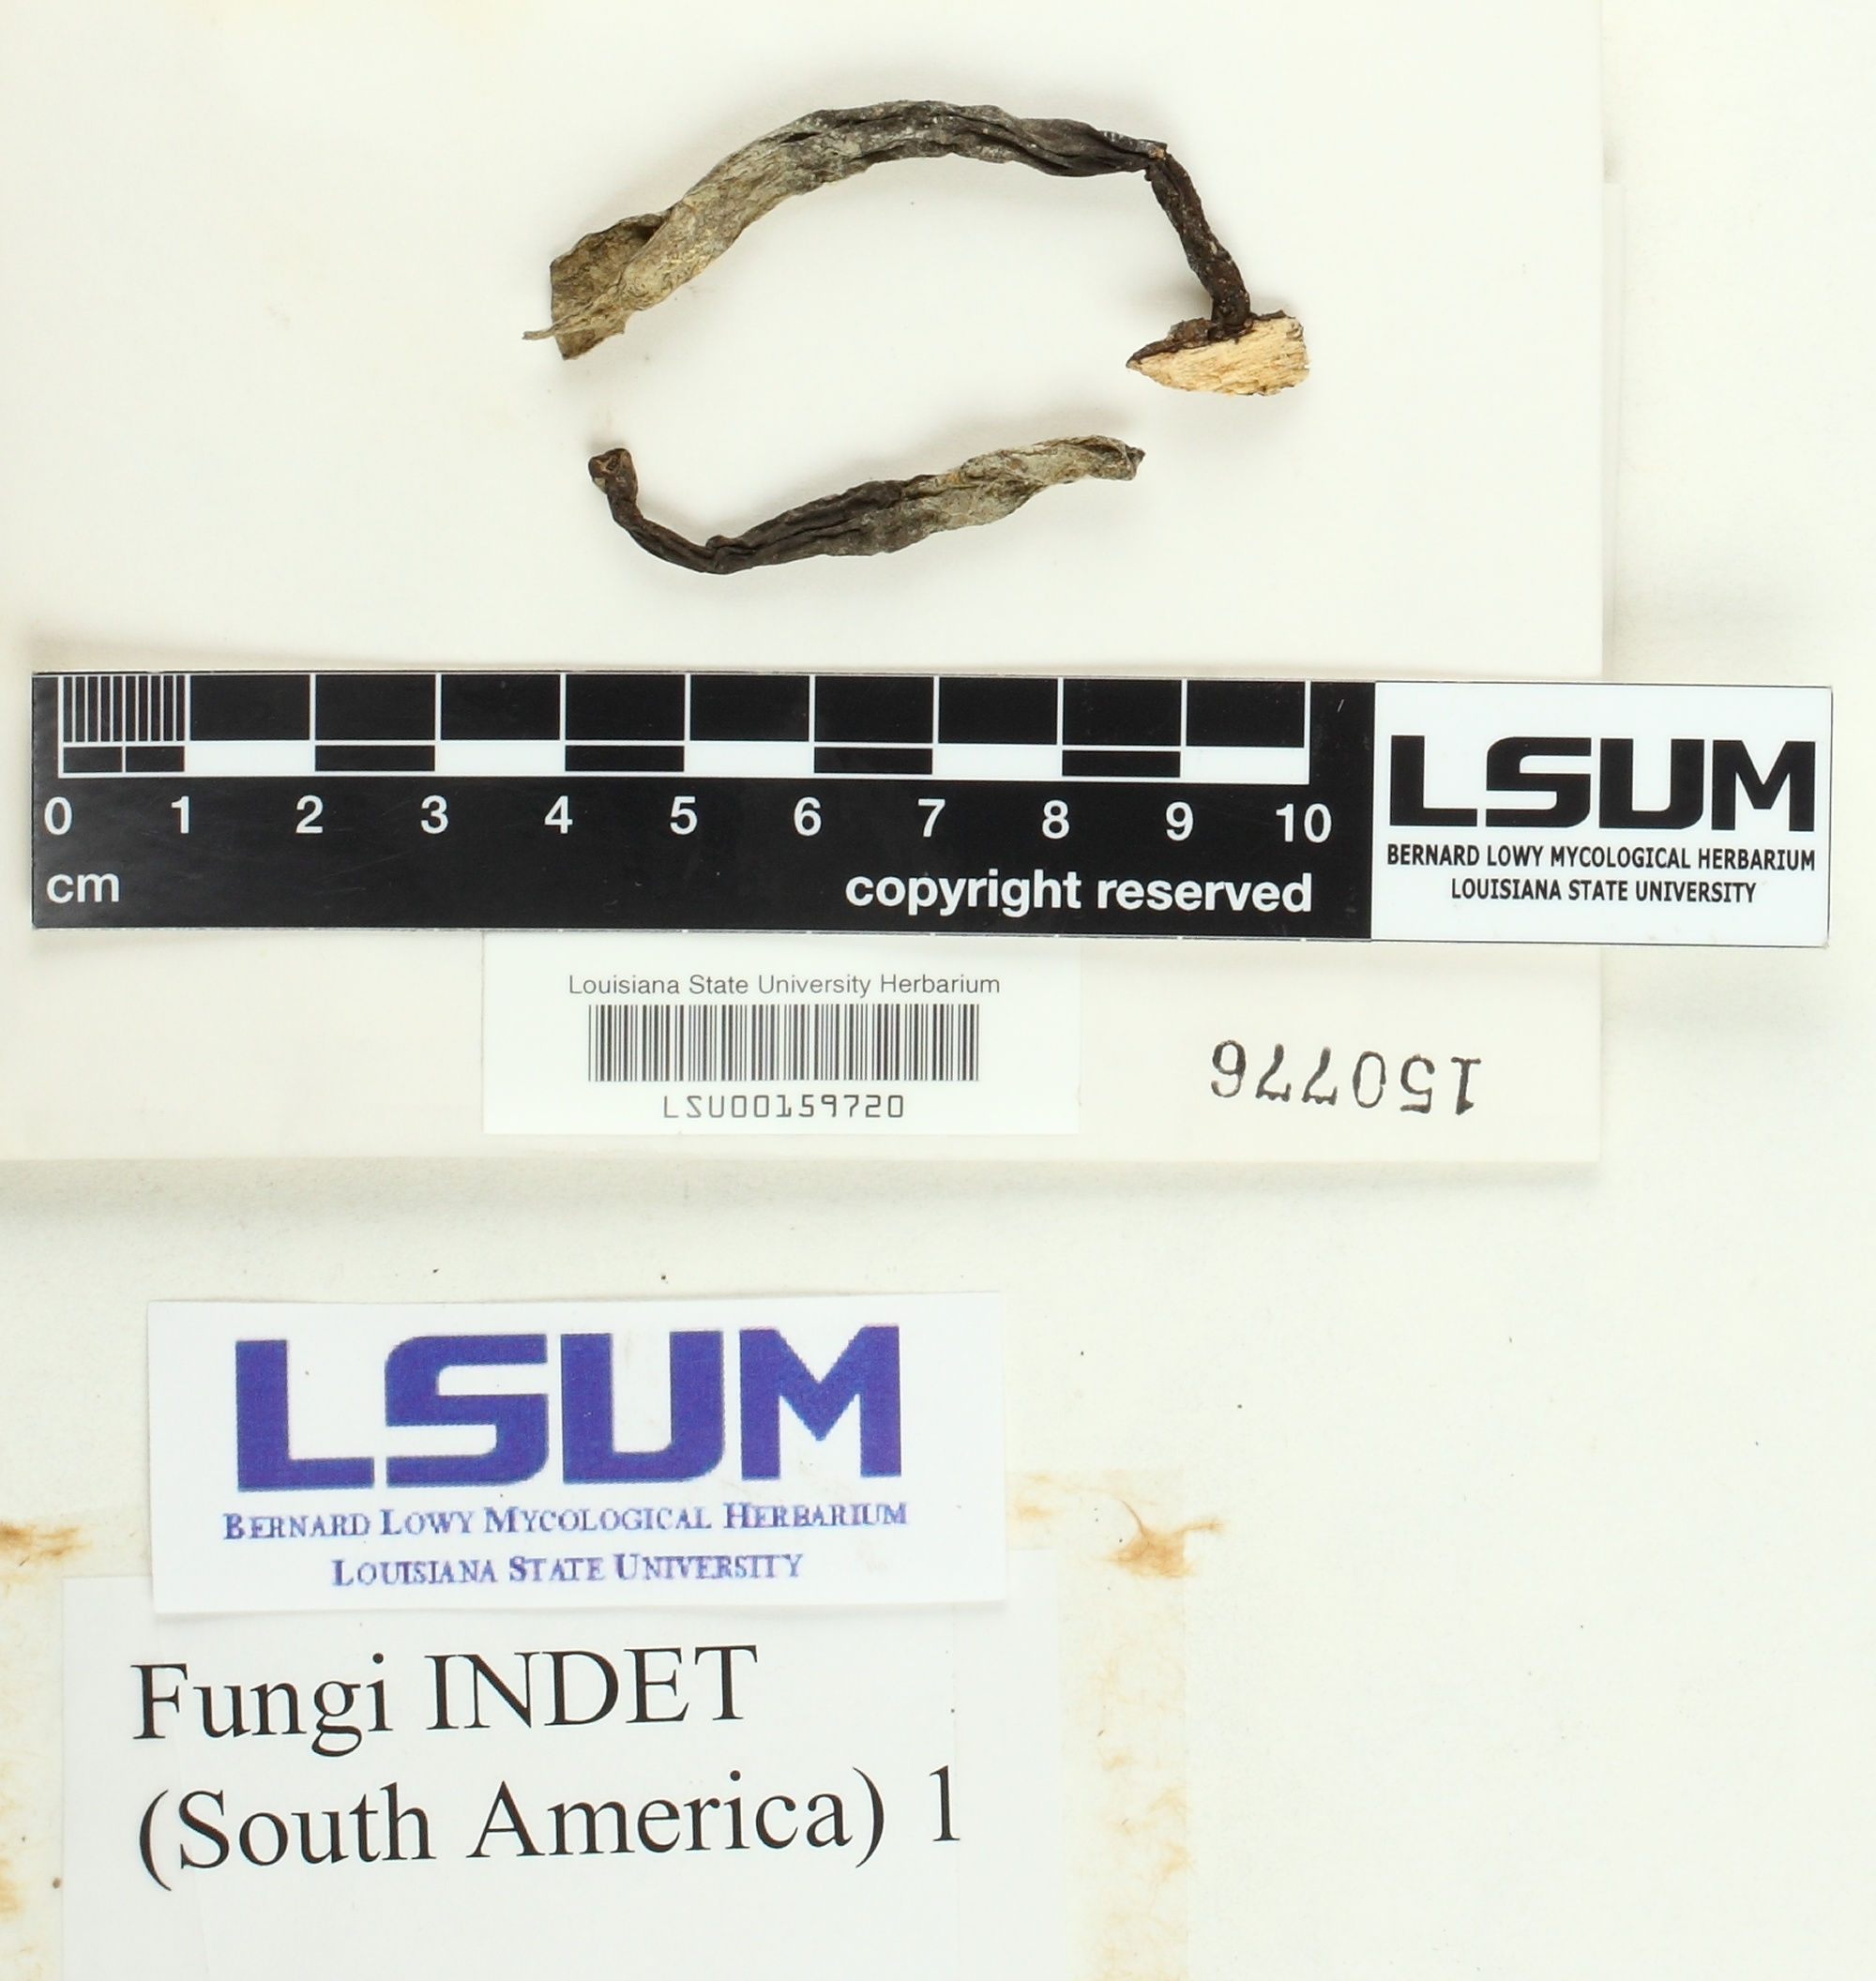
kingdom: Fungi
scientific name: Fungi
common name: Fungi
